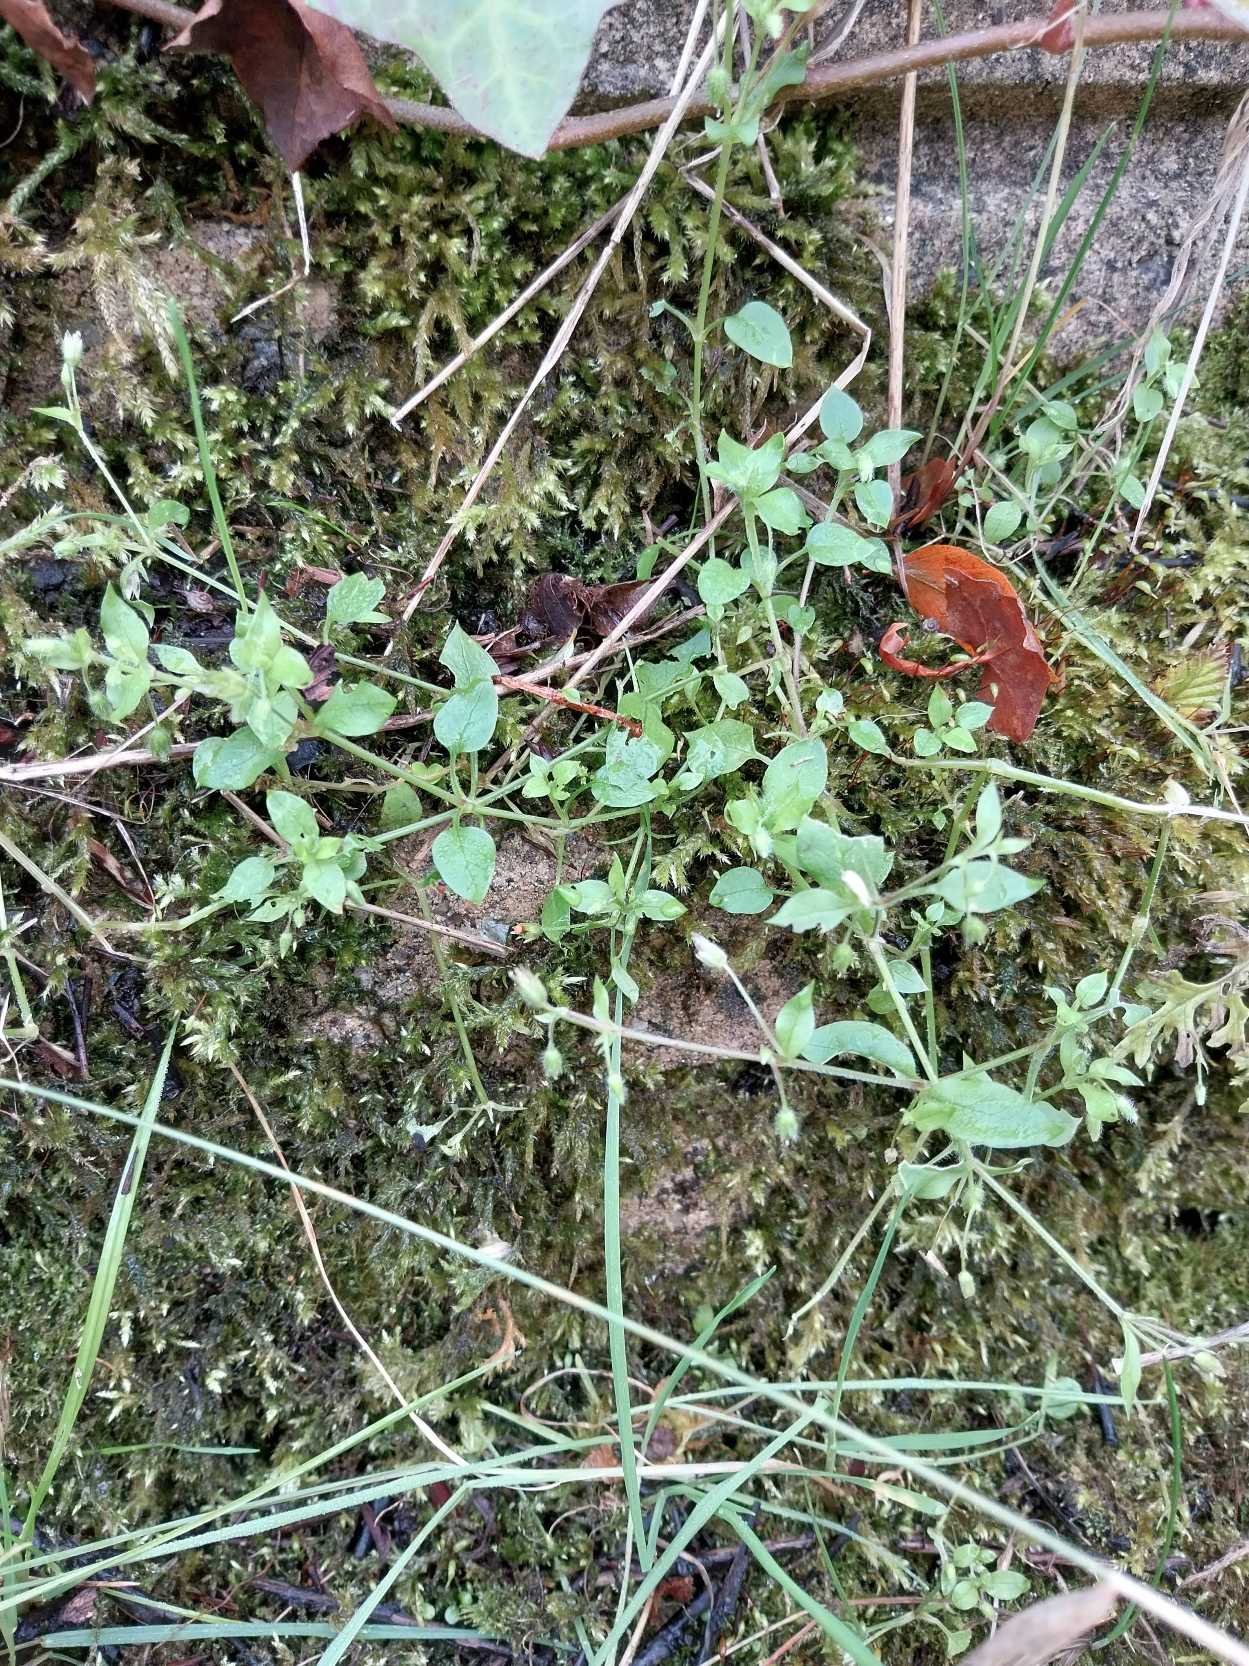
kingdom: Plantae
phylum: Tracheophyta
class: Magnoliopsida
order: Caryophyllales
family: Caryophyllaceae
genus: Stellaria
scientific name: Stellaria media
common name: Almindelig fuglegræs
